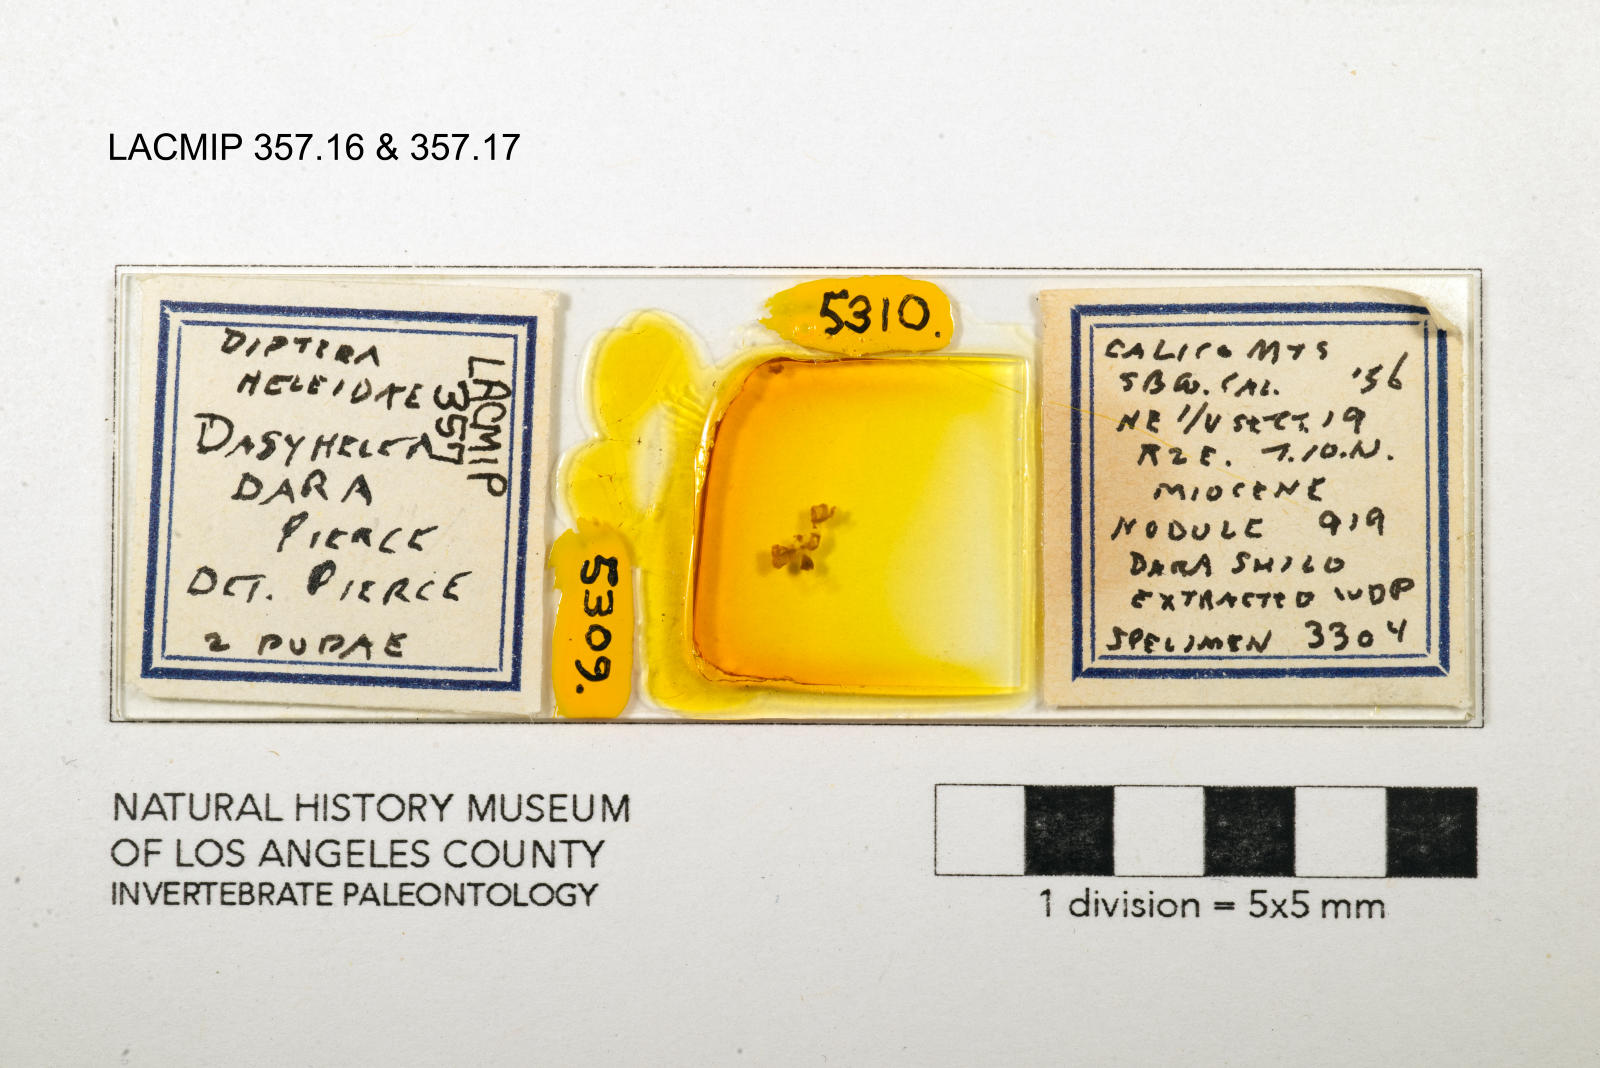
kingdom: Animalia
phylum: Arthropoda
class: Insecta
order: Diptera
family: Ceratopogonidae
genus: Dasyhelea
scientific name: Dasyhelea dara
